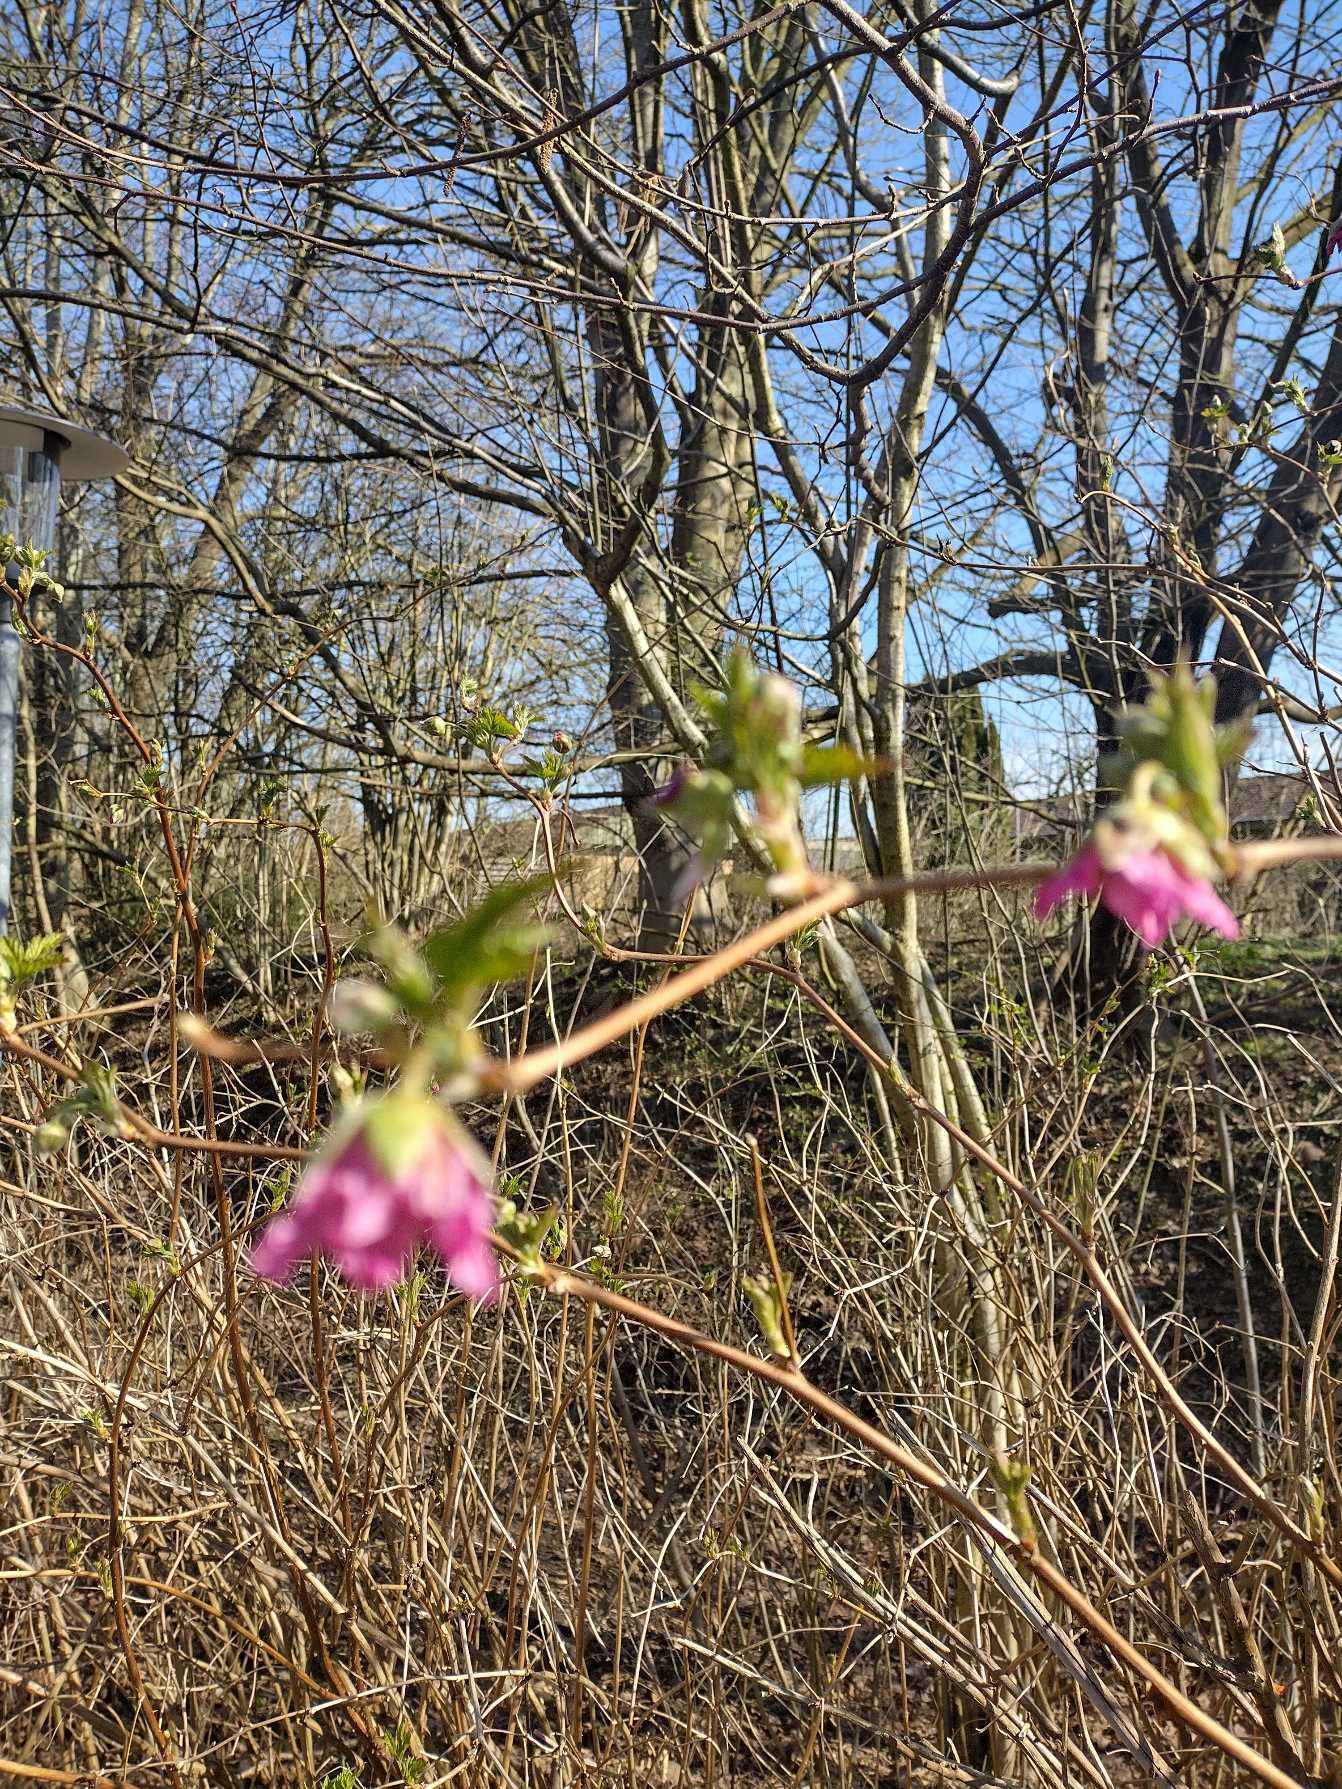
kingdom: Plantae
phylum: Tracheophyta
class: Magnoliopsida
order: Rosales
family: Rosaceae
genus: Rubus
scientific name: Rubus spectabilis
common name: Laksebær
